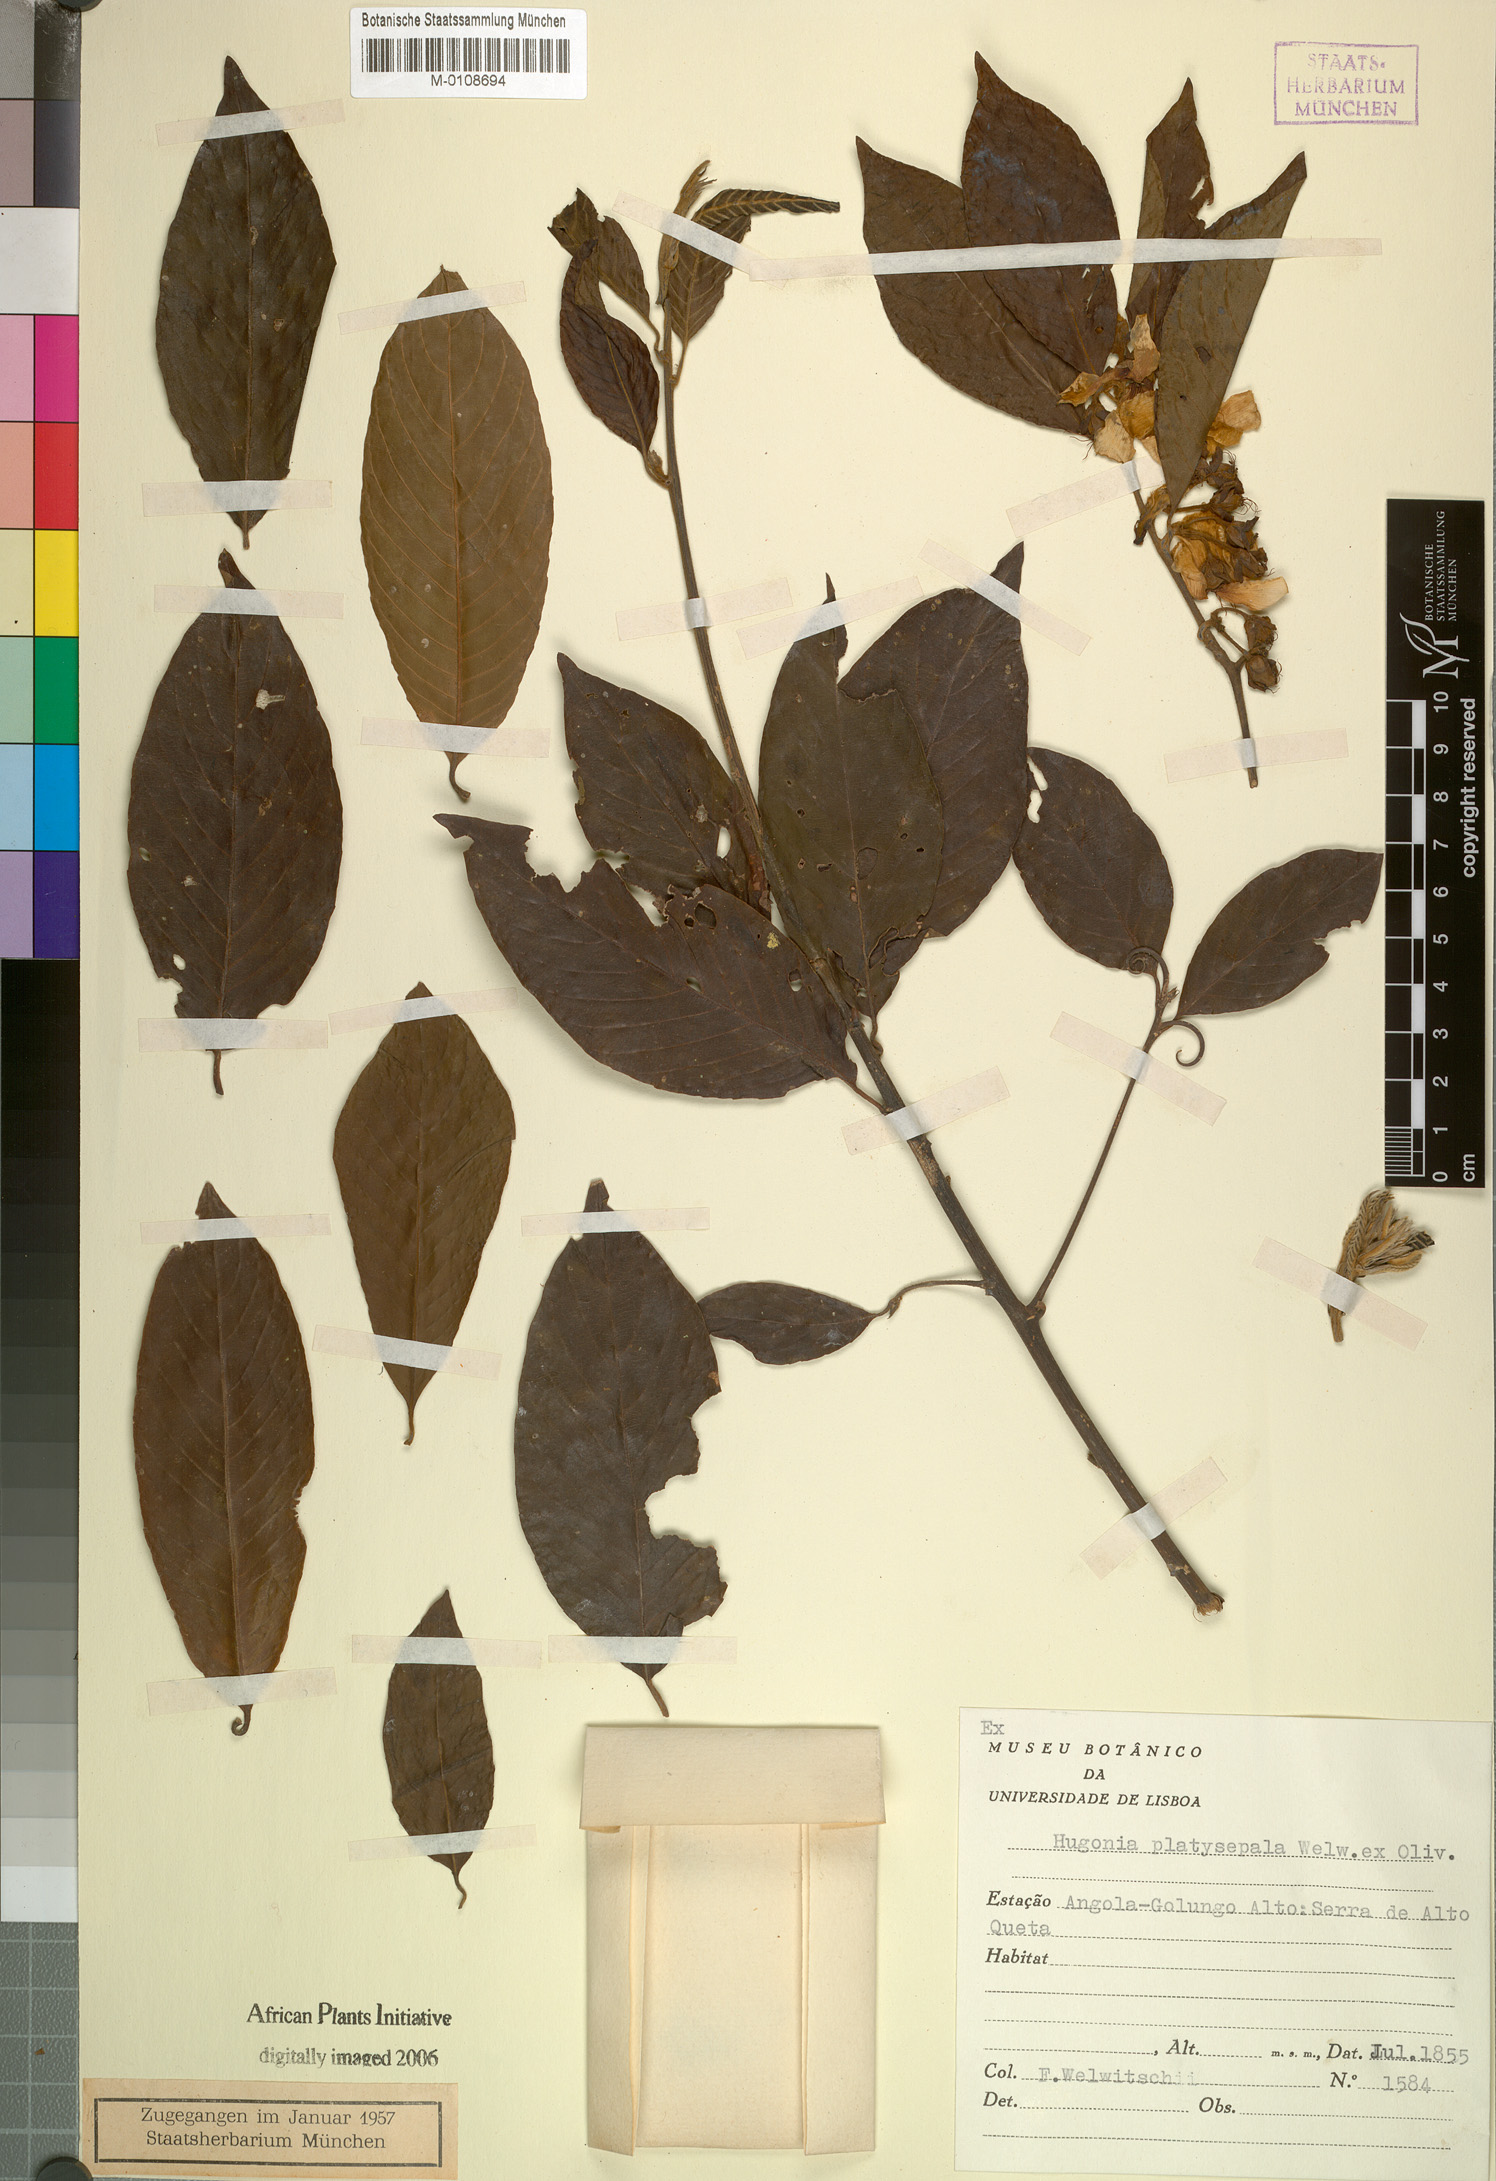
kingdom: Plantae
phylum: Tracheophyta
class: Magnoliopsida
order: Malpighiales
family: Linaceae
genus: Hugonia
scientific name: Hugonia platysepala
